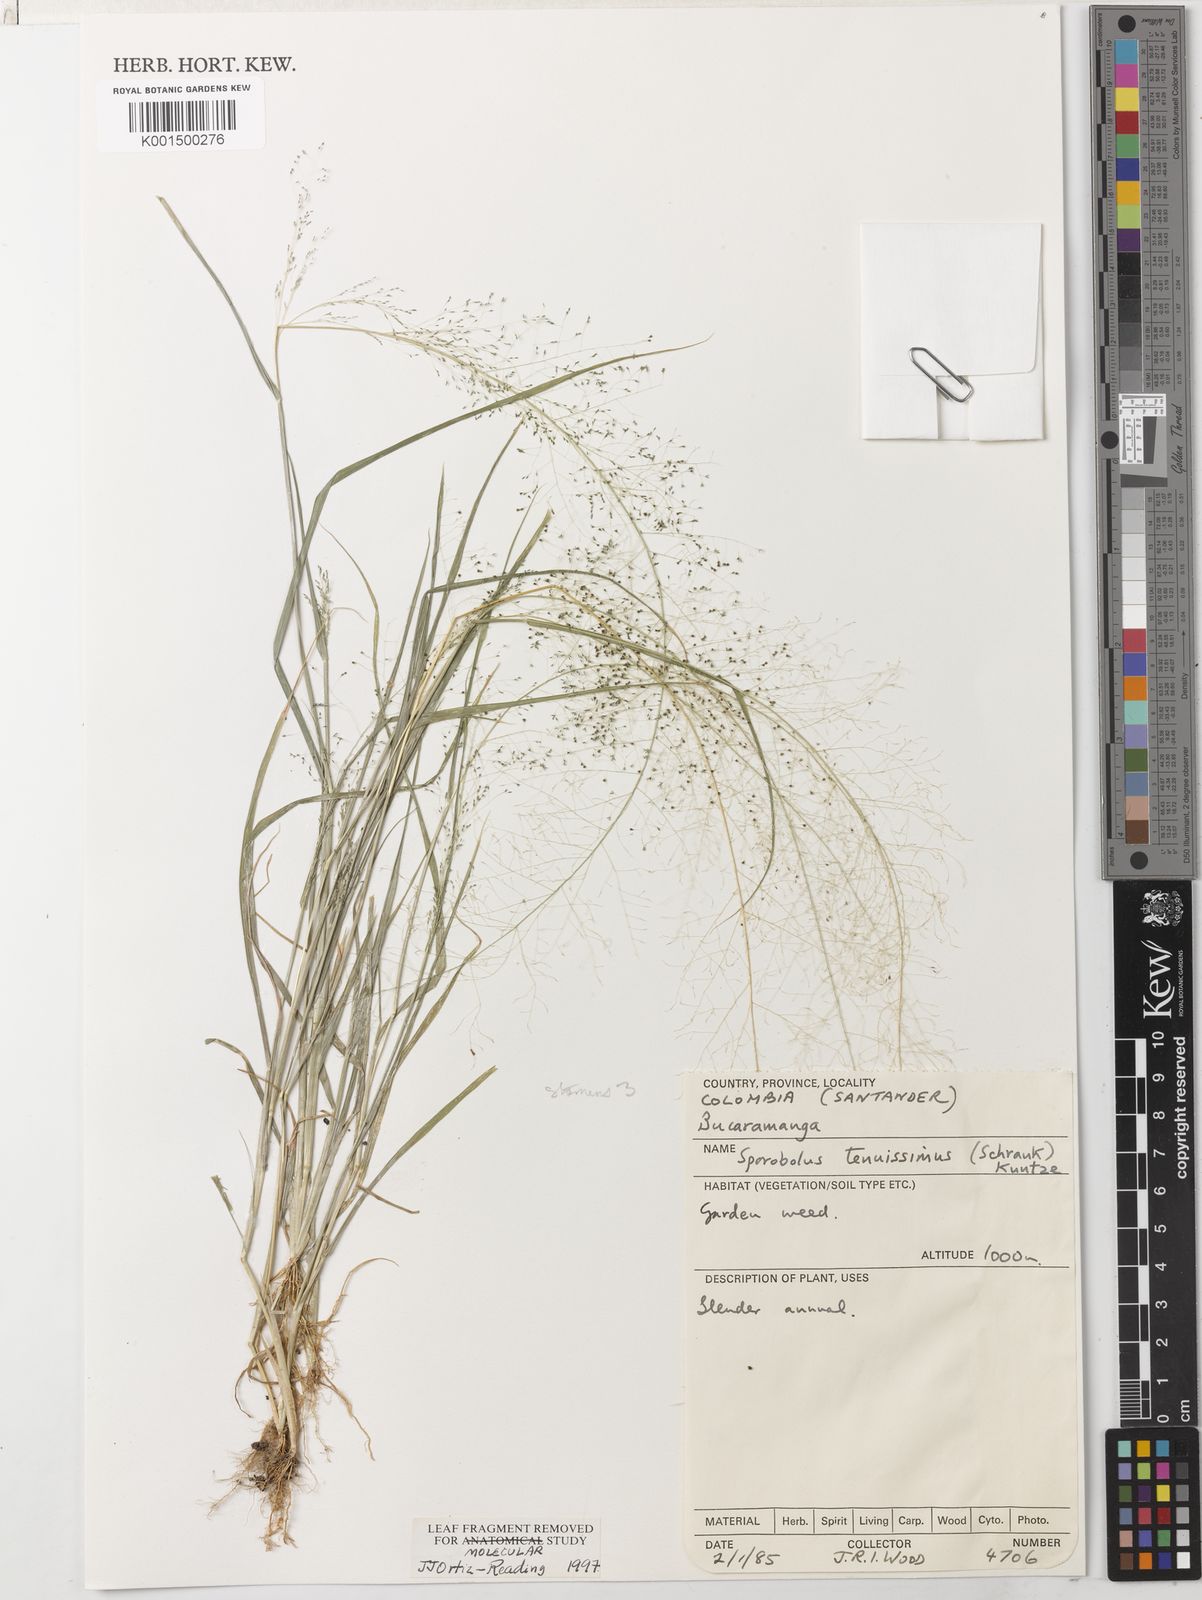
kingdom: Plantae
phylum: Tracheophyta
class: Liliopsida
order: Poales
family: Poaceae
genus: Sporobolus
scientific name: Sporobolus infirmus
